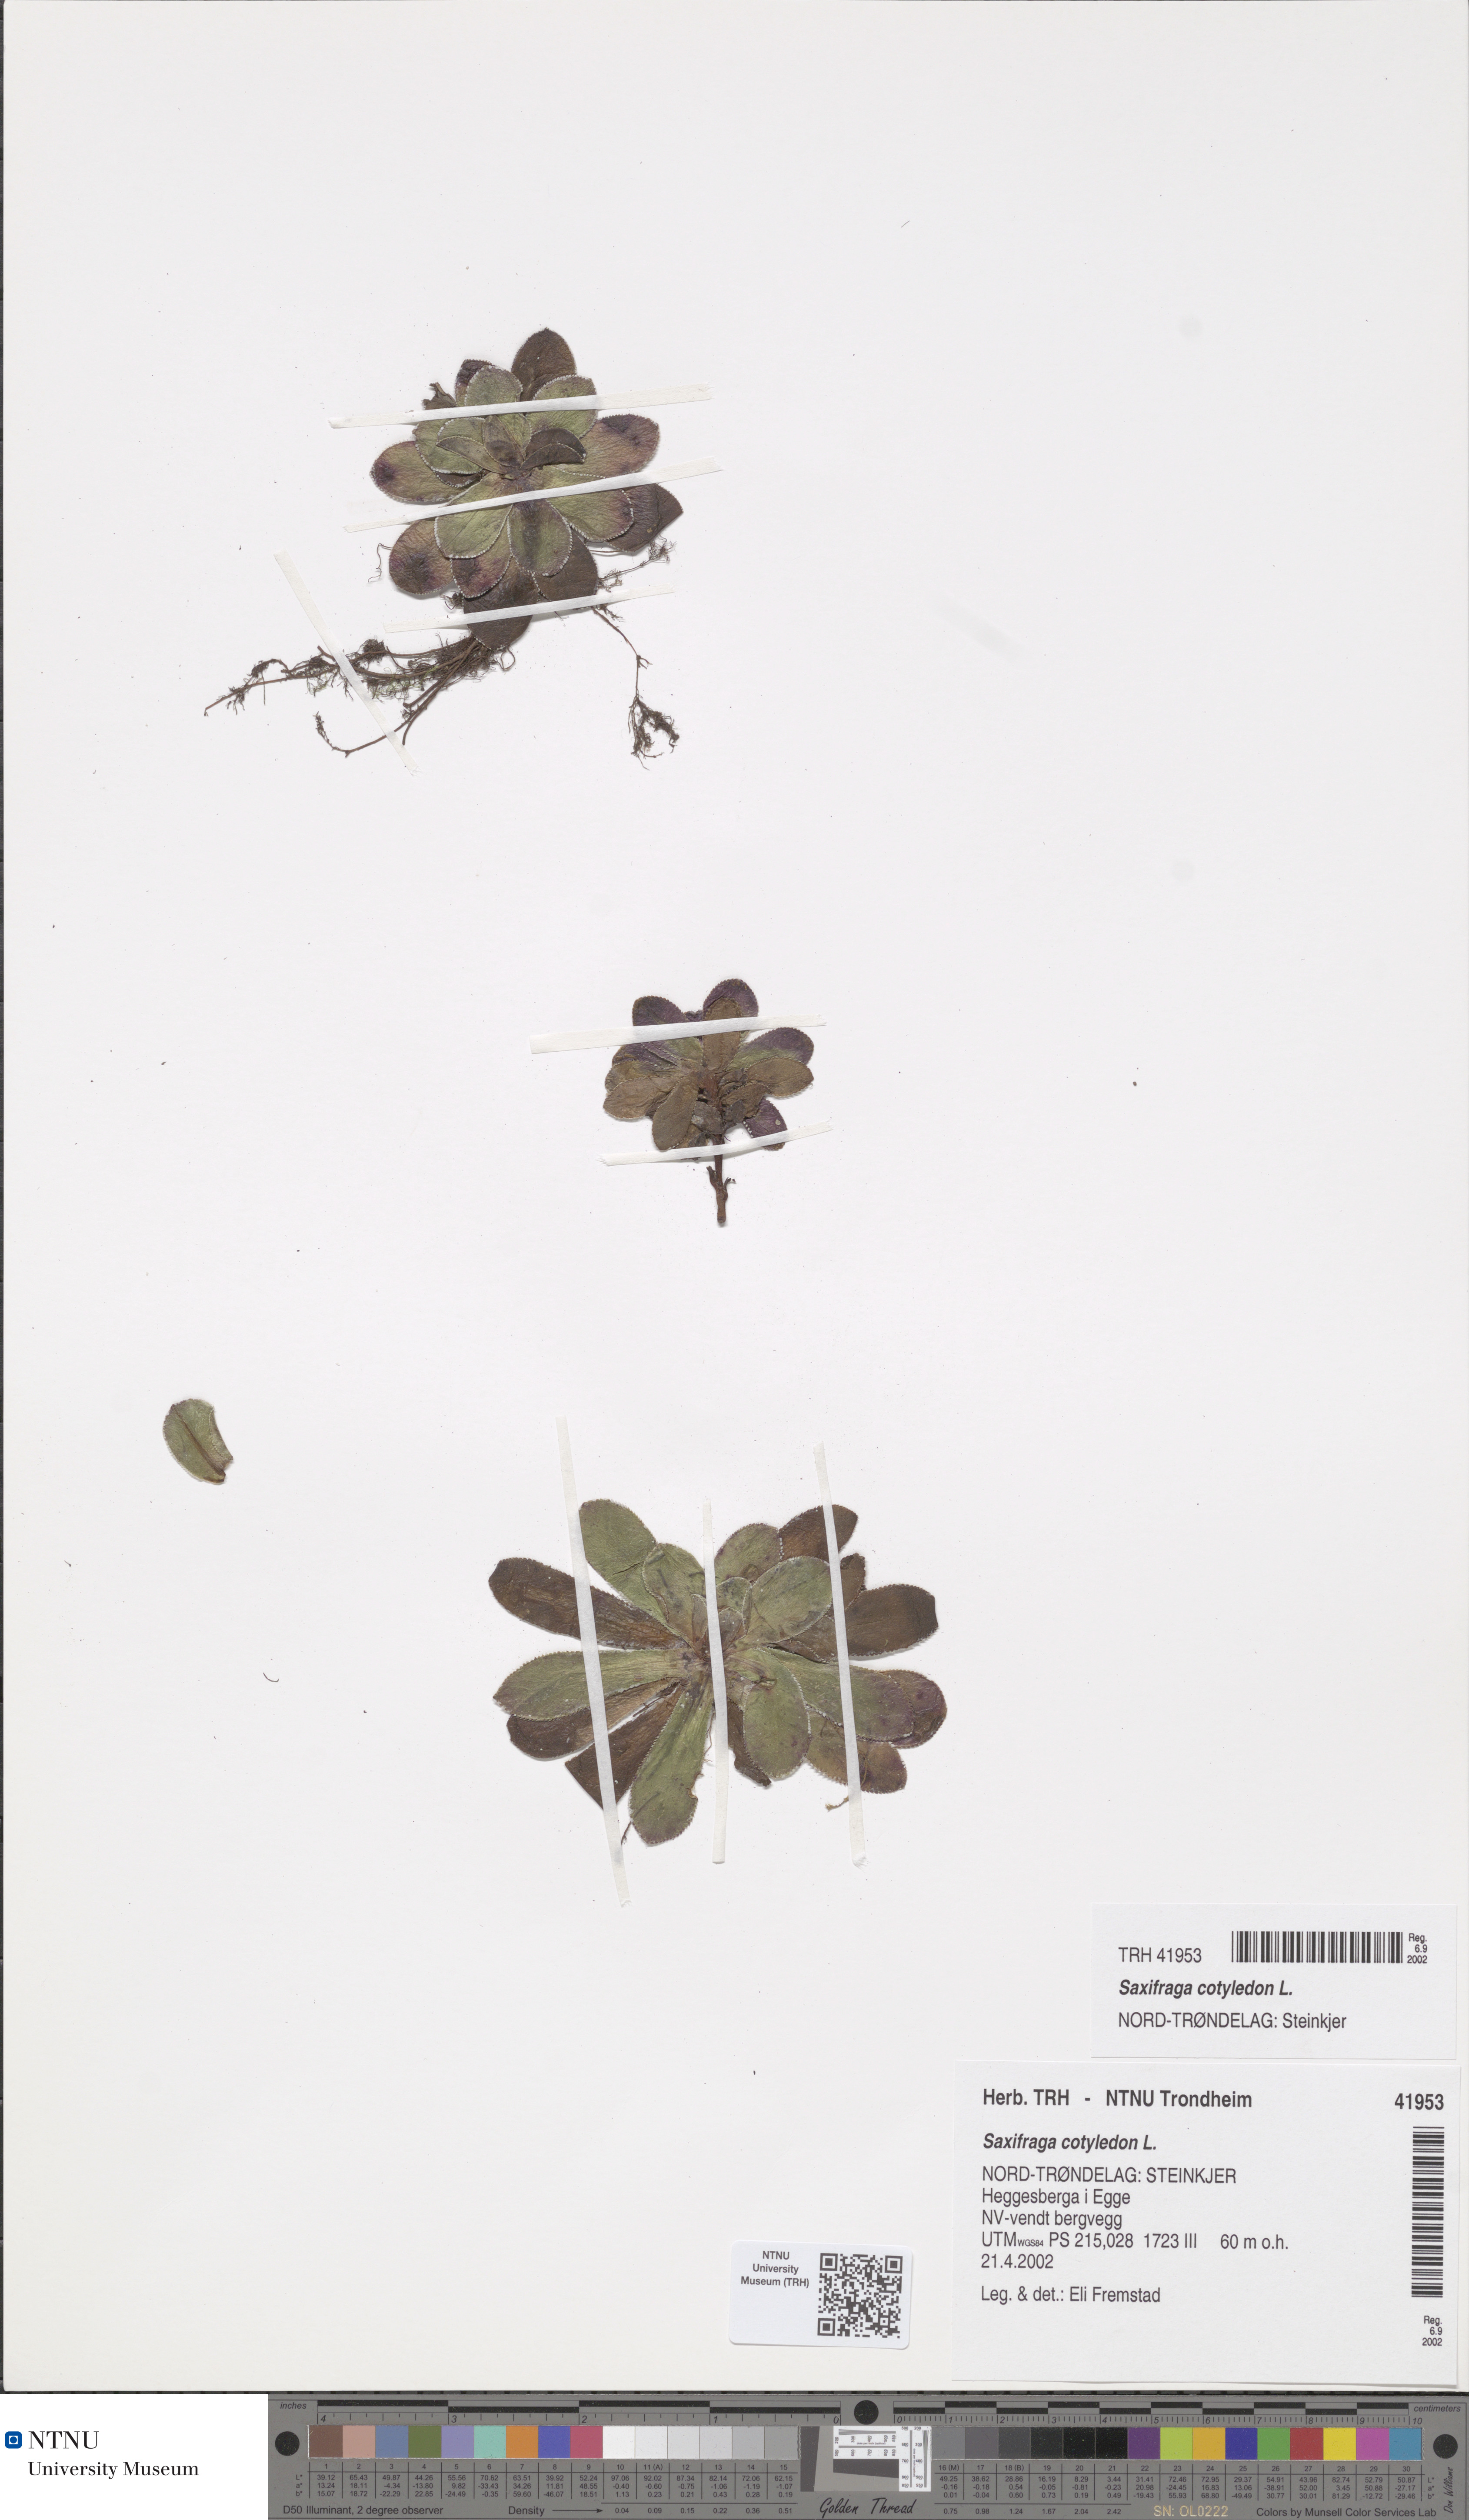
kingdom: Plantae
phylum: Tracheophyta
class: Magnoliopsida
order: Saxifragales
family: Saxifragaceae
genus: Saxifraga
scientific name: Saxifraga cotyledon
